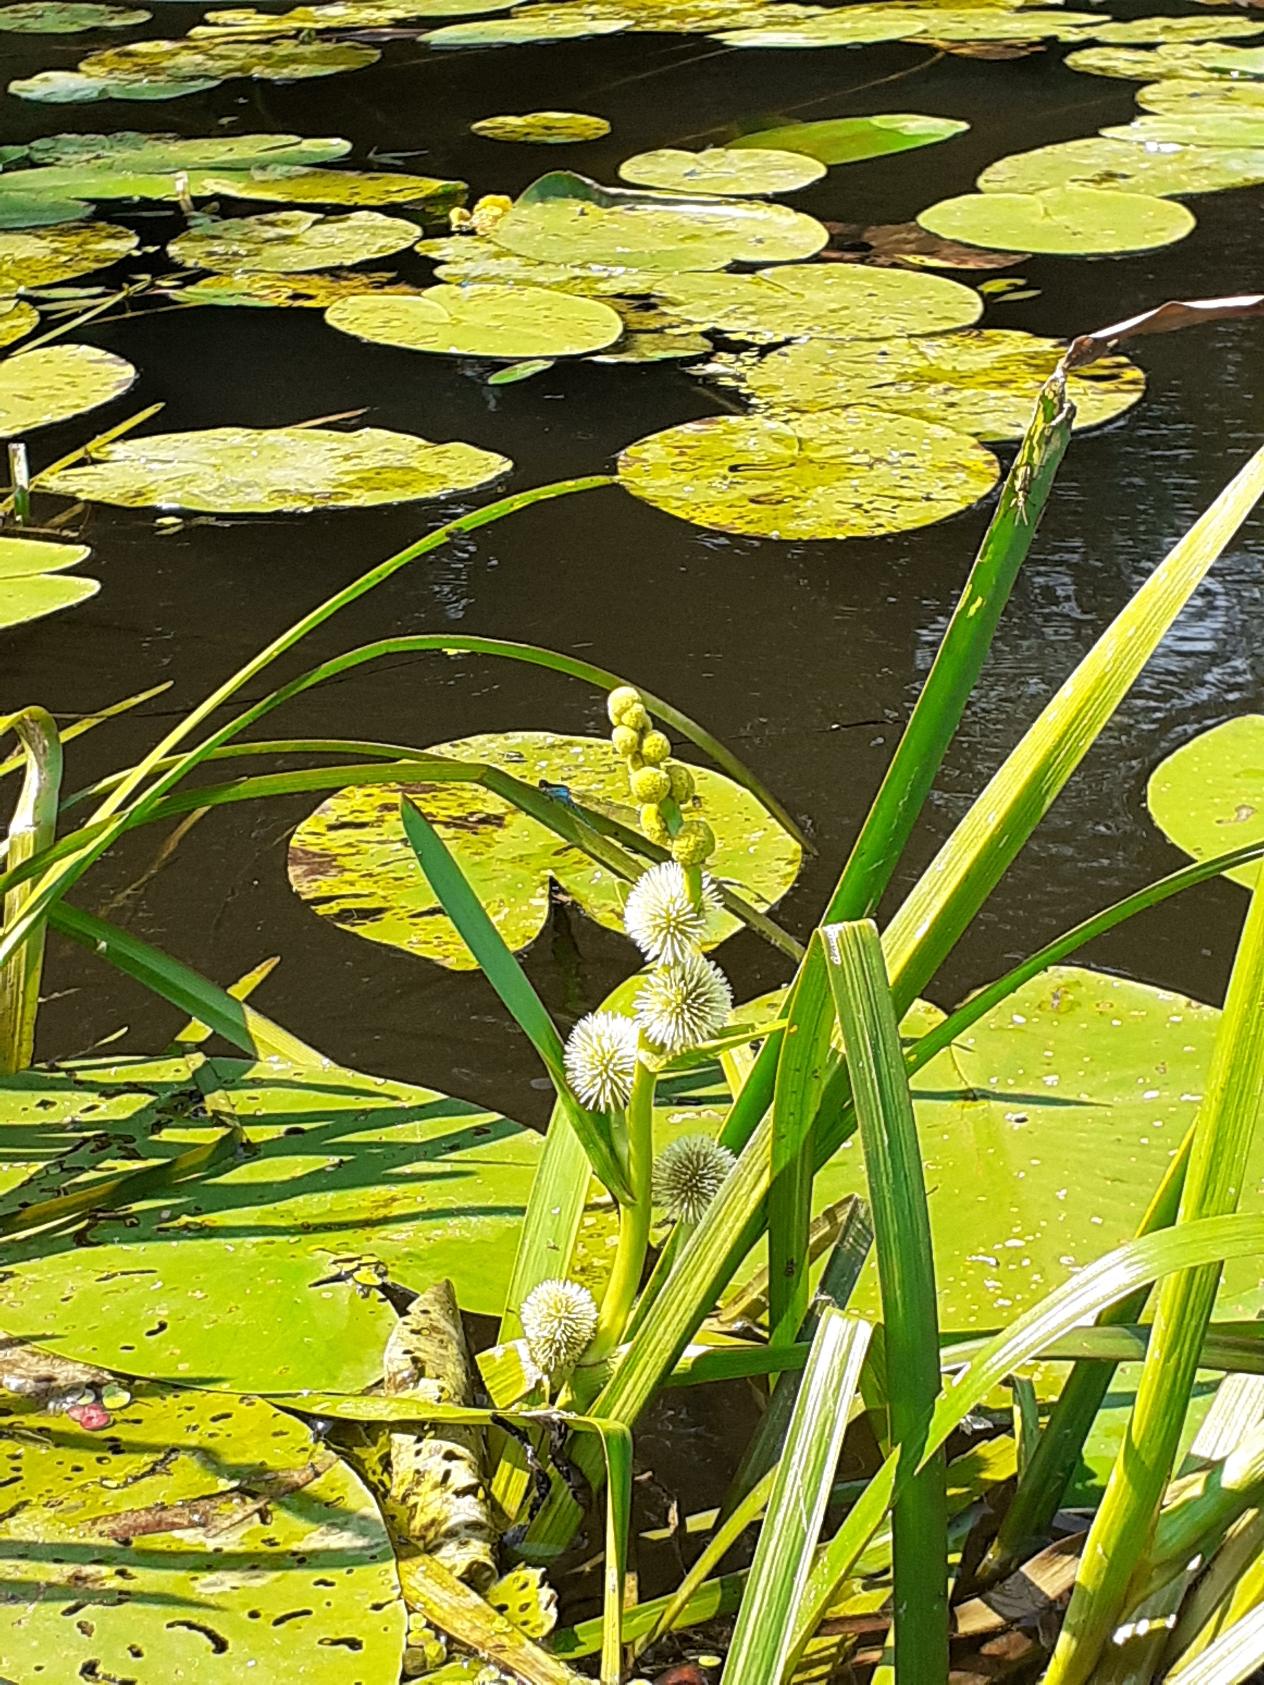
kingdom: Plantae
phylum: Tracheophyta
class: Liliopsida
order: Poales
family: Typhaceae
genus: Sparganium
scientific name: Sparganium emersum
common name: Enkelt pindsvineknop
